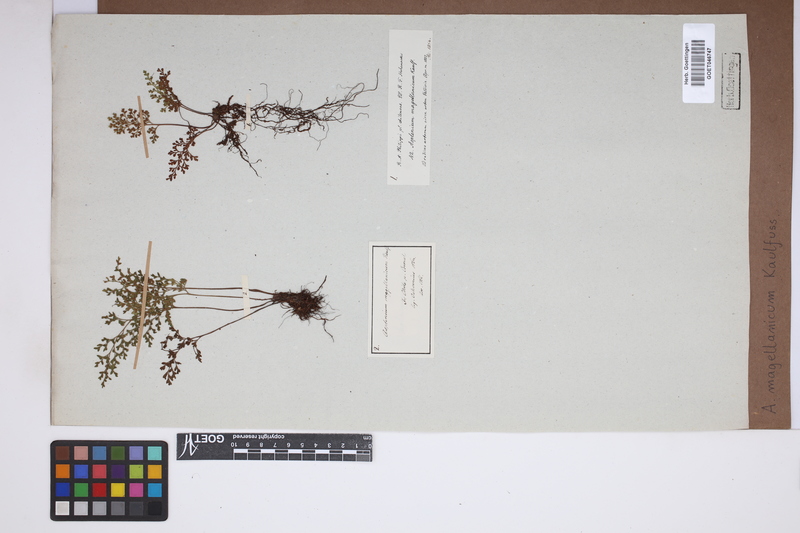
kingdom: Plantae
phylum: Tracheophyta
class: Polypodiopsida
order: Polypodiales
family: Aspleniaceae
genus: Asplenium
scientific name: Asplenium dareoides
